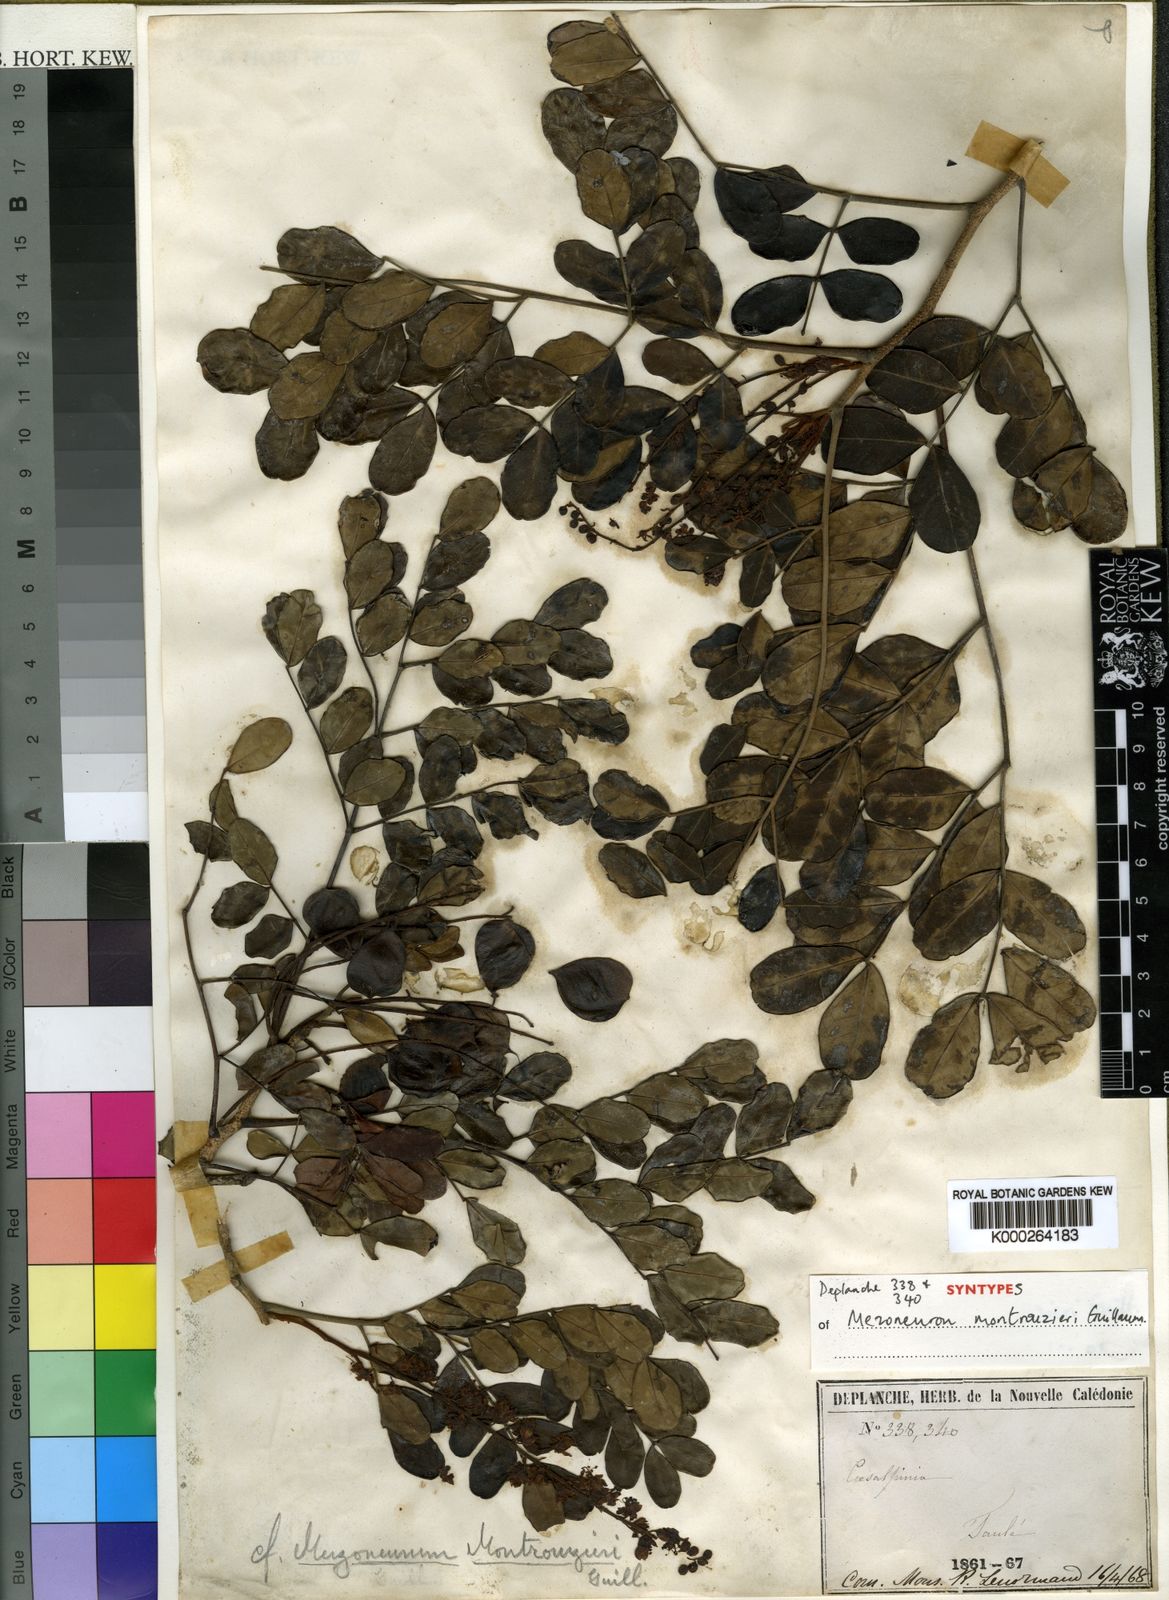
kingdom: Plantae
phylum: Tracheophyta
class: Magnoliopsida
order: Fabales
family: Fabaceae
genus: Mezoneuron
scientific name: Mezoneuron montrouzieri
